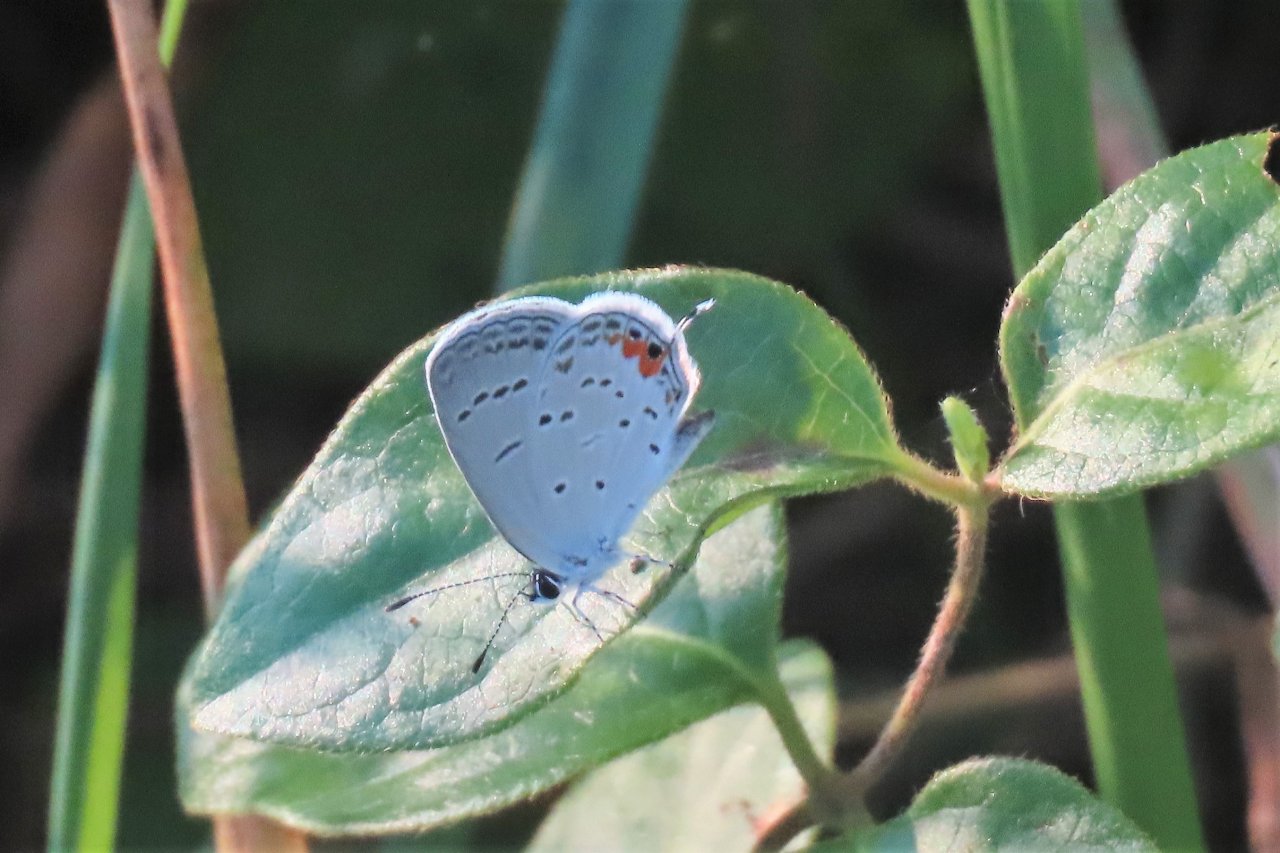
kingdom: Animalia
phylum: Arthropoda
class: Insecta
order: Lepidoptera
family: Lycaenidae
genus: Elkalyce
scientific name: Elkalyce comyntas
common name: Eastern Tailed-Blue
